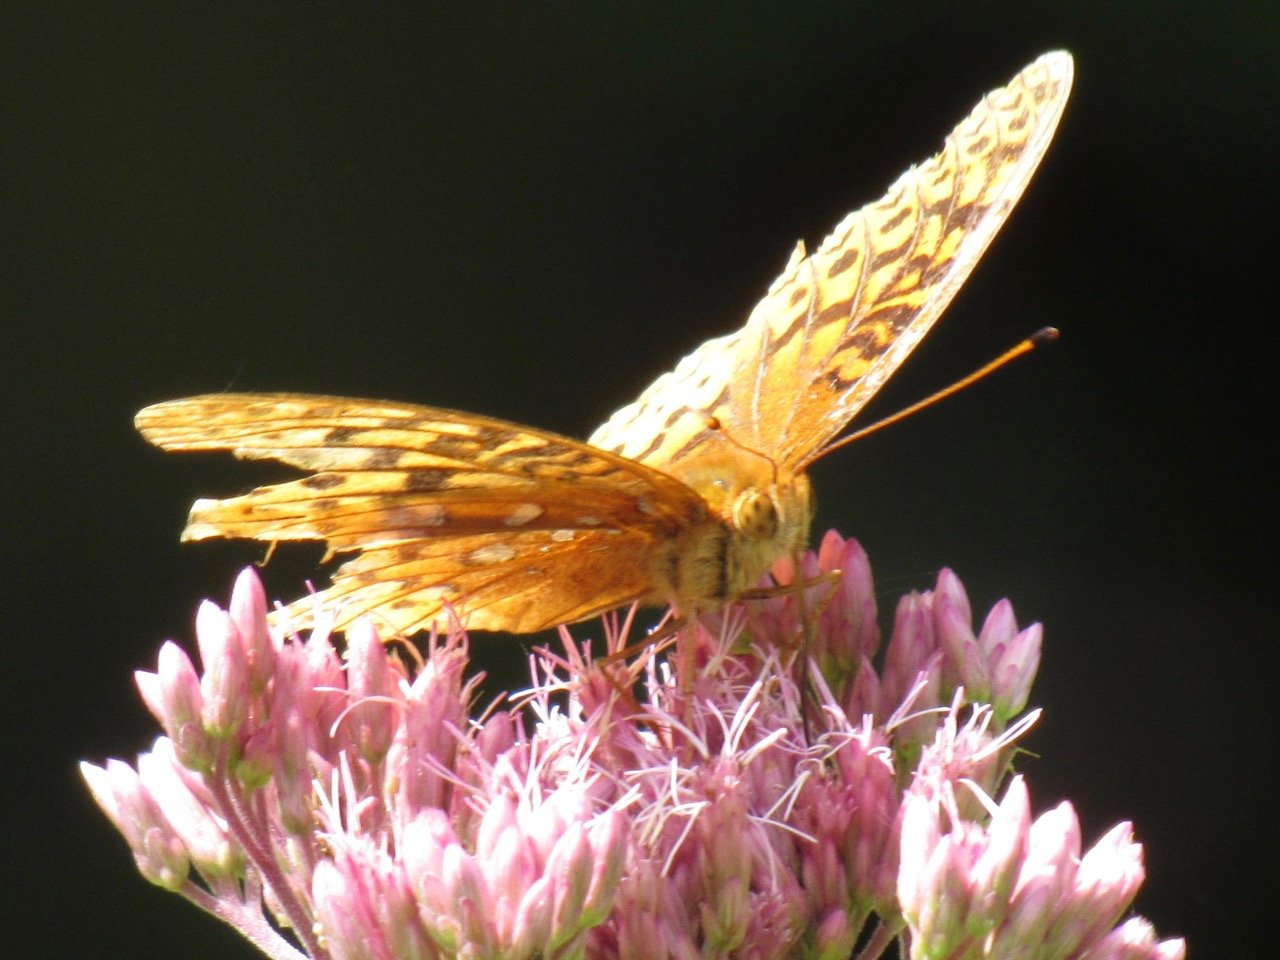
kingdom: Animalia
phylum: Arthropoda
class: Insecta
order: Lepidoptera
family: Nymphalidae
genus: Speyeria
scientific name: Speyeria cybele
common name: Great Spangled Fritillary
